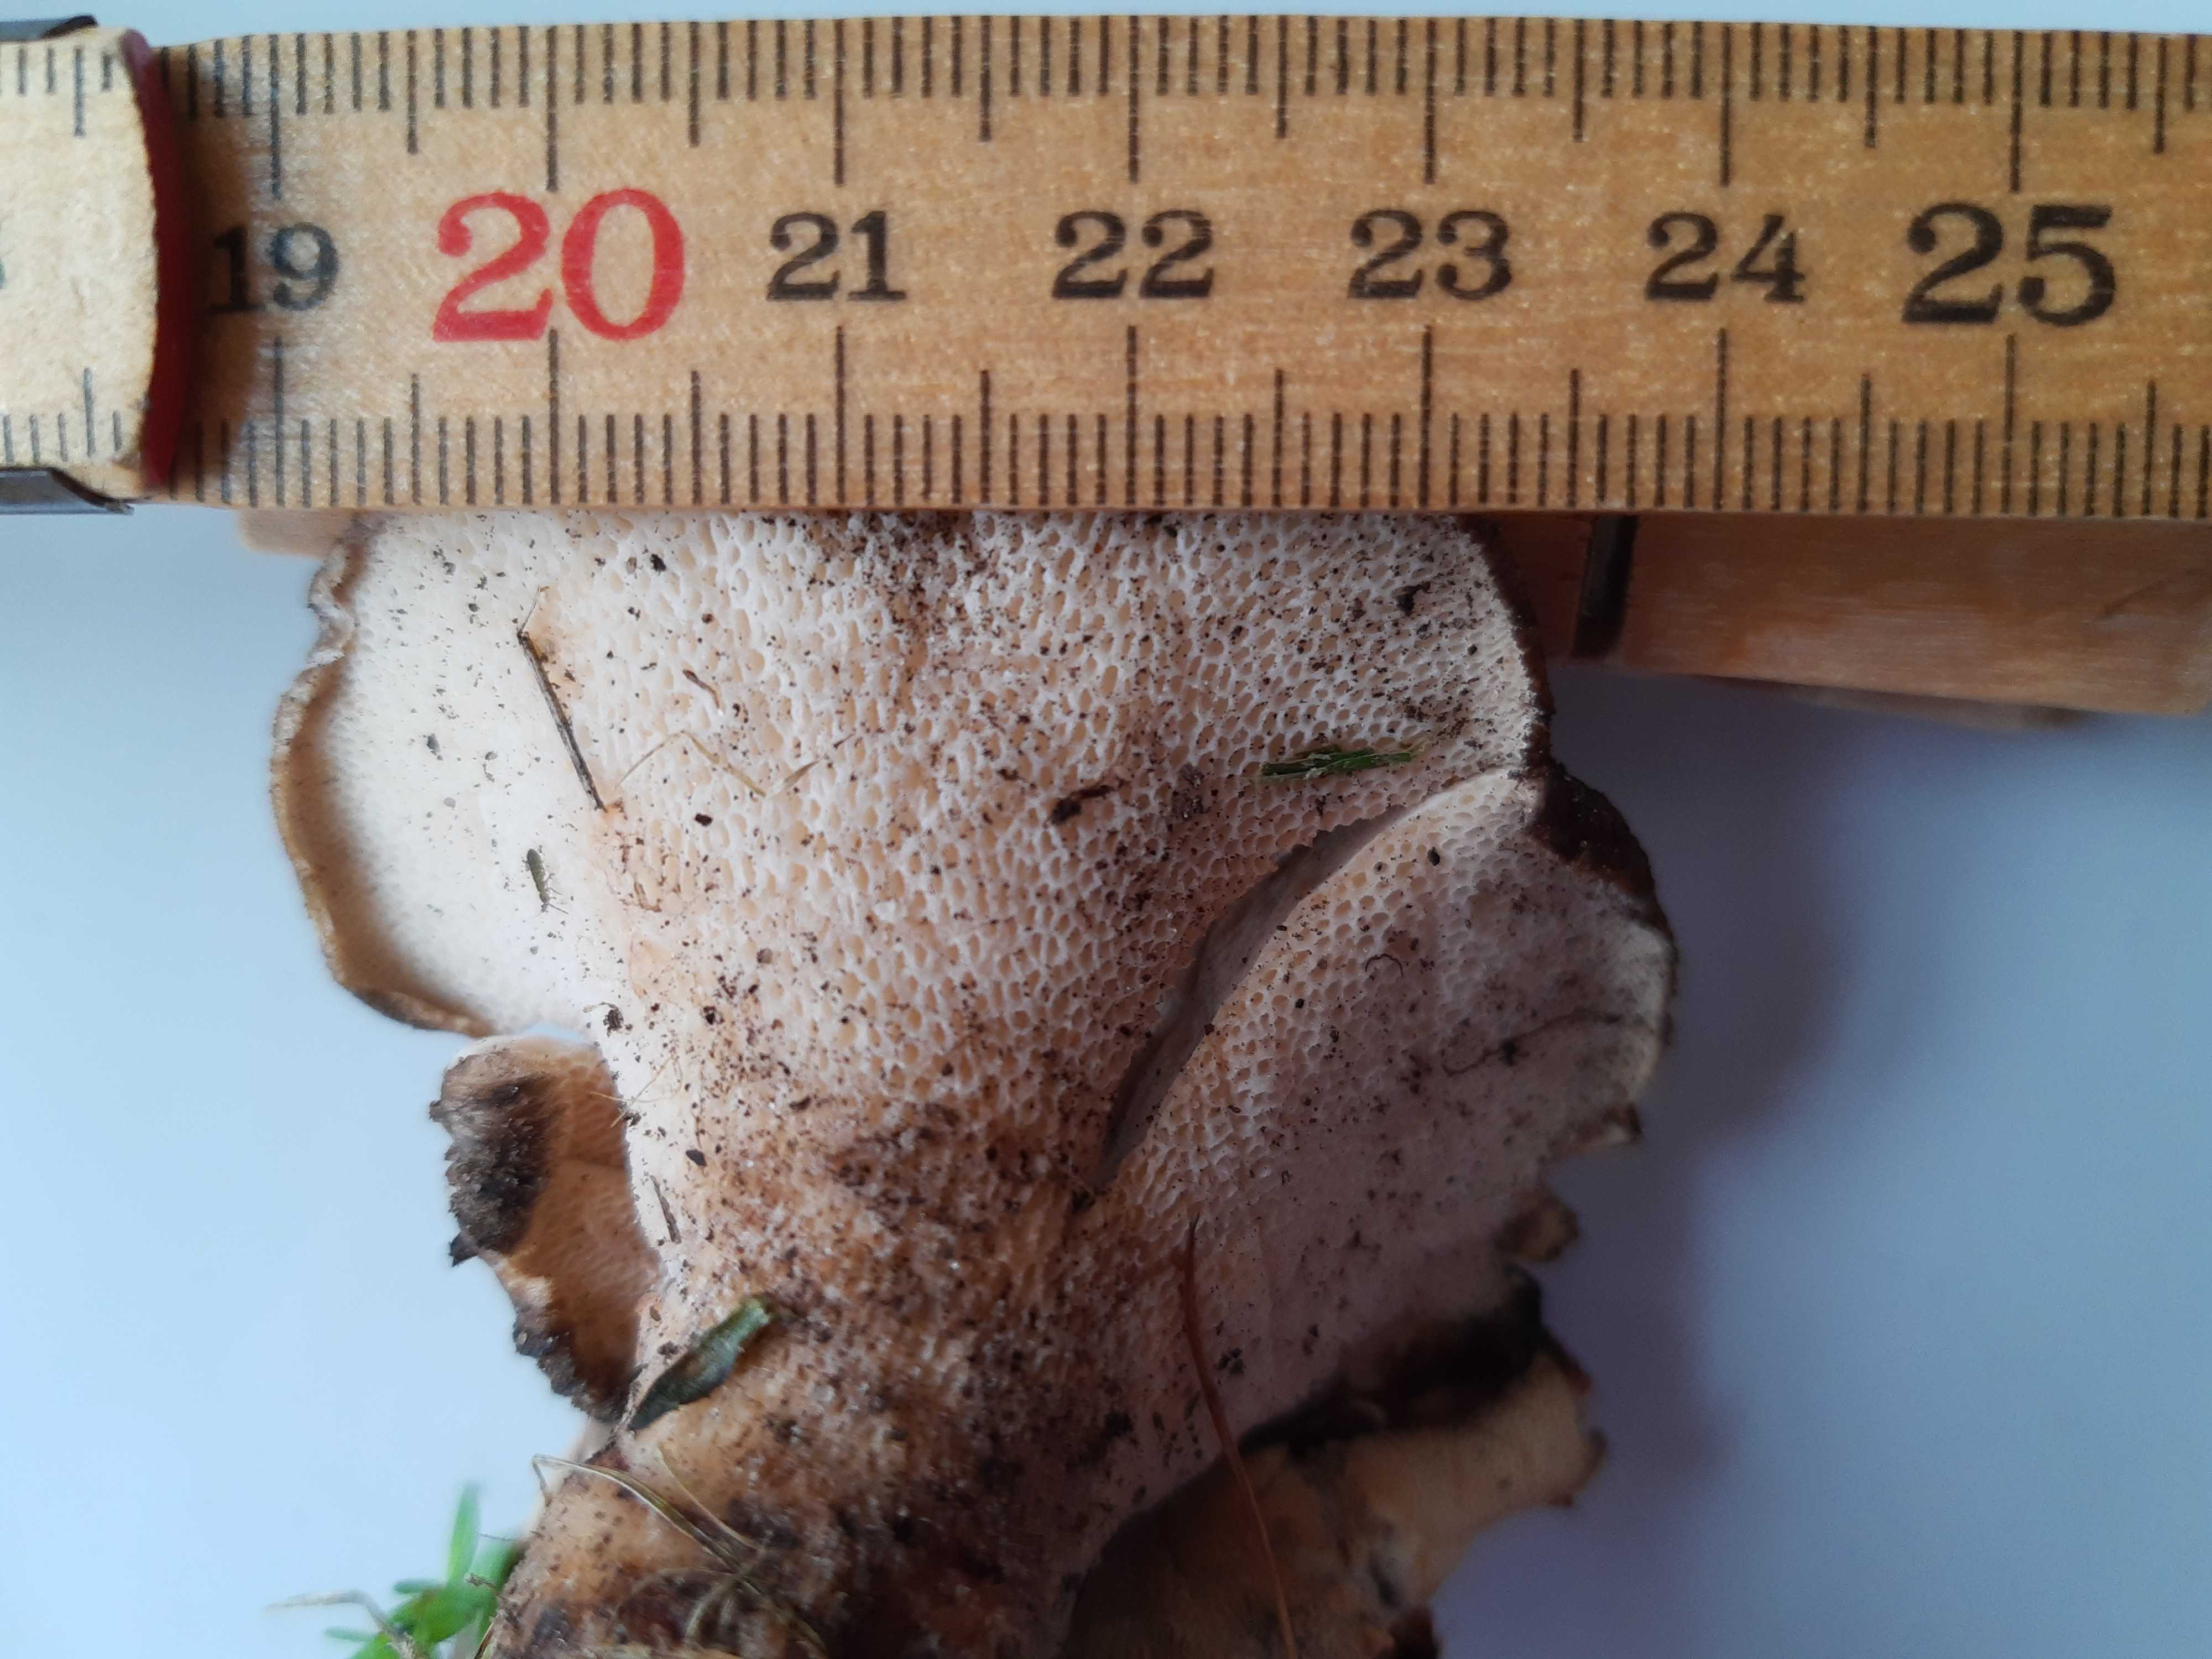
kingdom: Fungi
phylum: Basidiomycota
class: Agaricomycetes
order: Polyporales
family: Polyporaceae
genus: Polyporus
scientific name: Polyporus tuberaster
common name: knoldet stilkporesvamp
